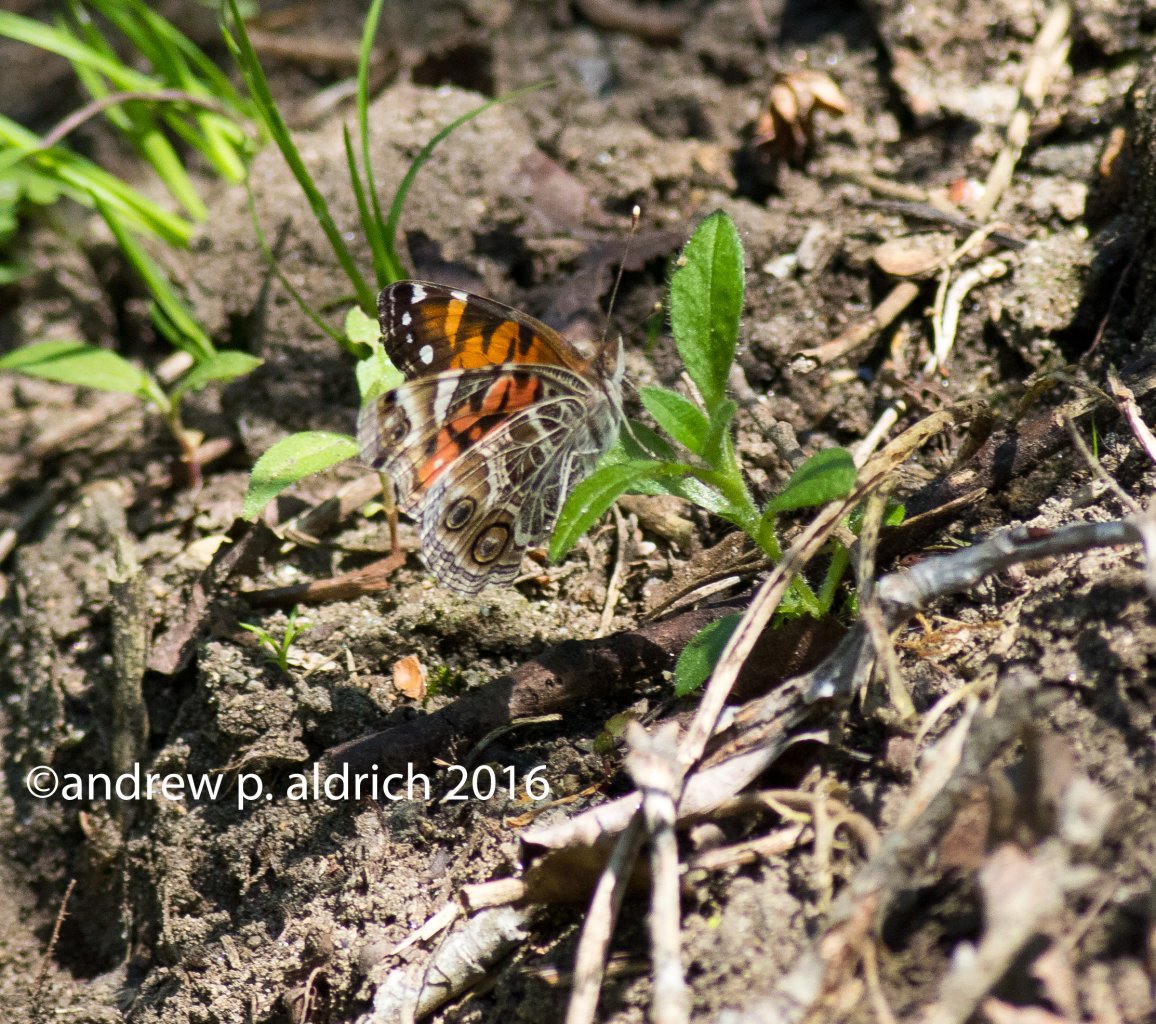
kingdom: Animalia
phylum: Arthropoda
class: Insecta
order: Lepidoptera
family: Nymphalidae
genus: Vanessa
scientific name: Vanessa virginiensis
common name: American Lady
